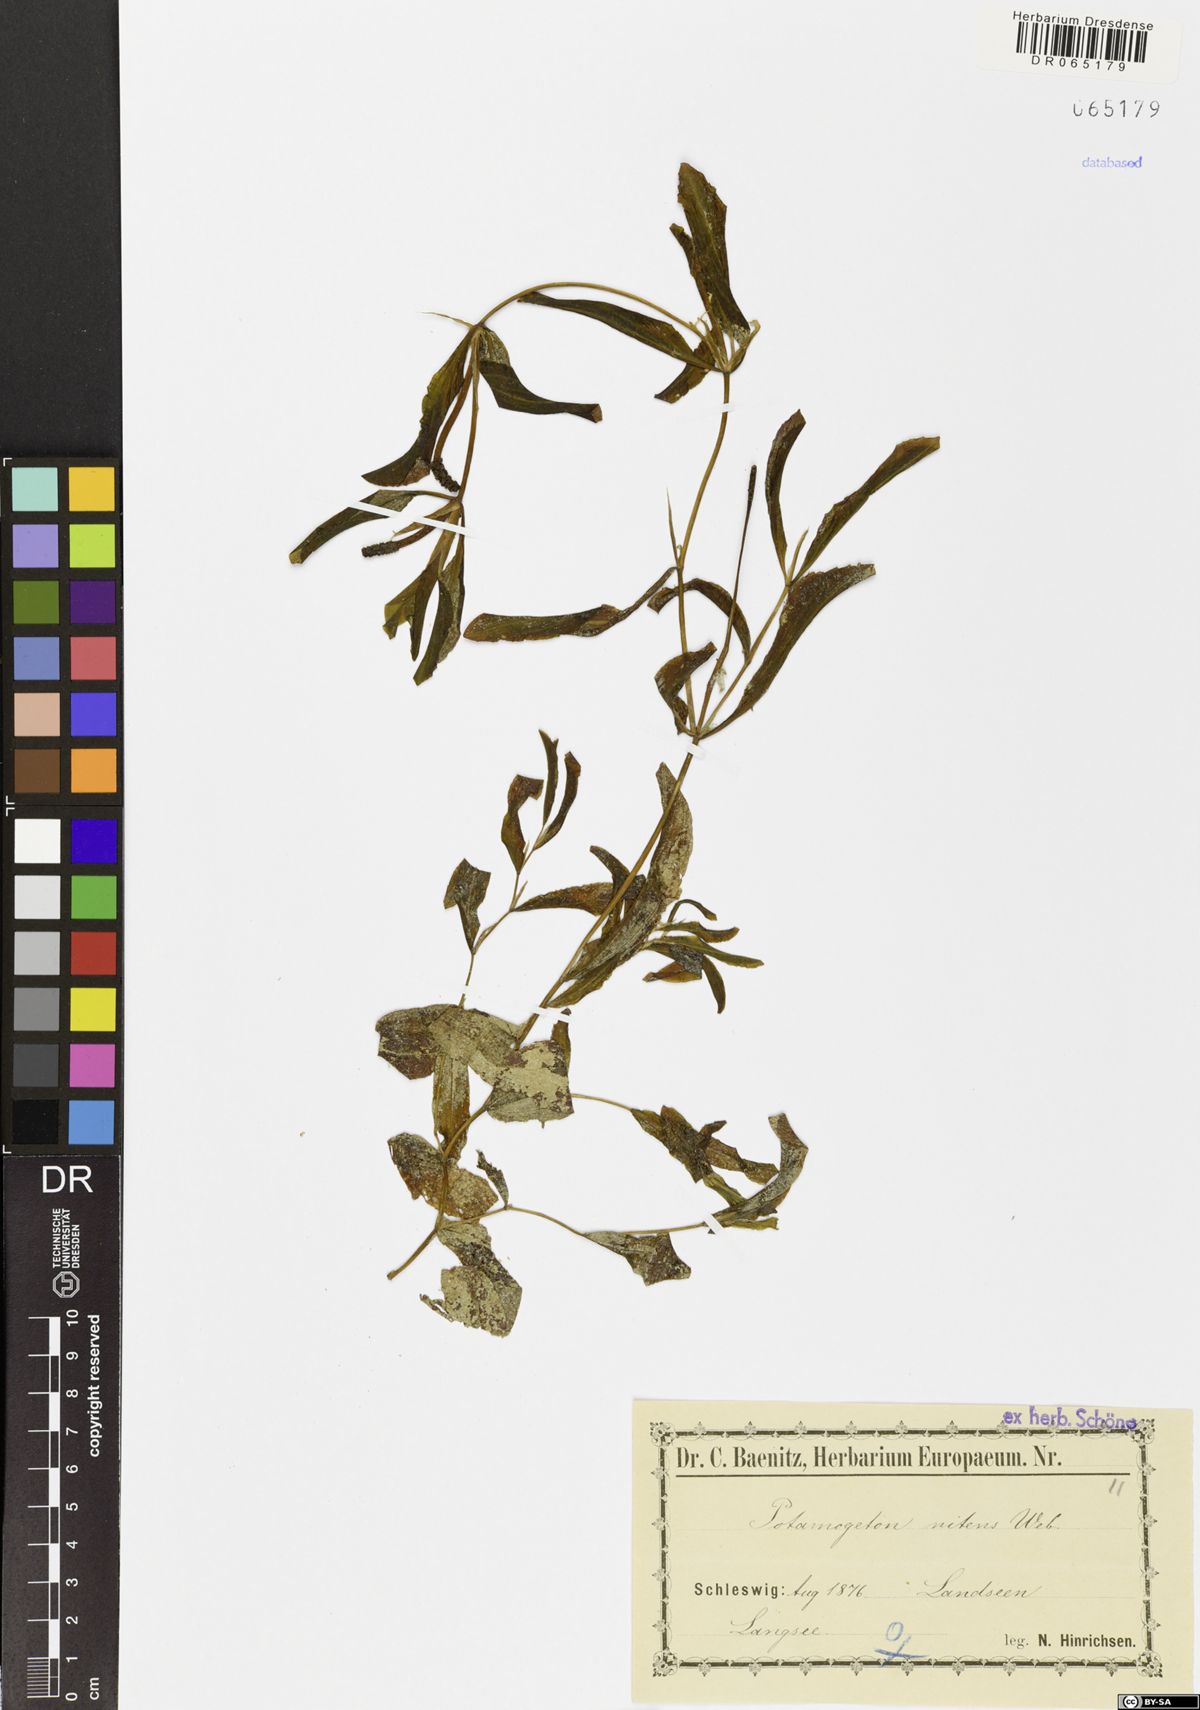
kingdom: Plantae
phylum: Tracheophyta
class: Liliopsida
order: Alismatales
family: Potamogetonaceae
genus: Potamogeton
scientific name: Potamogeton nitens
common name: Pondweed
